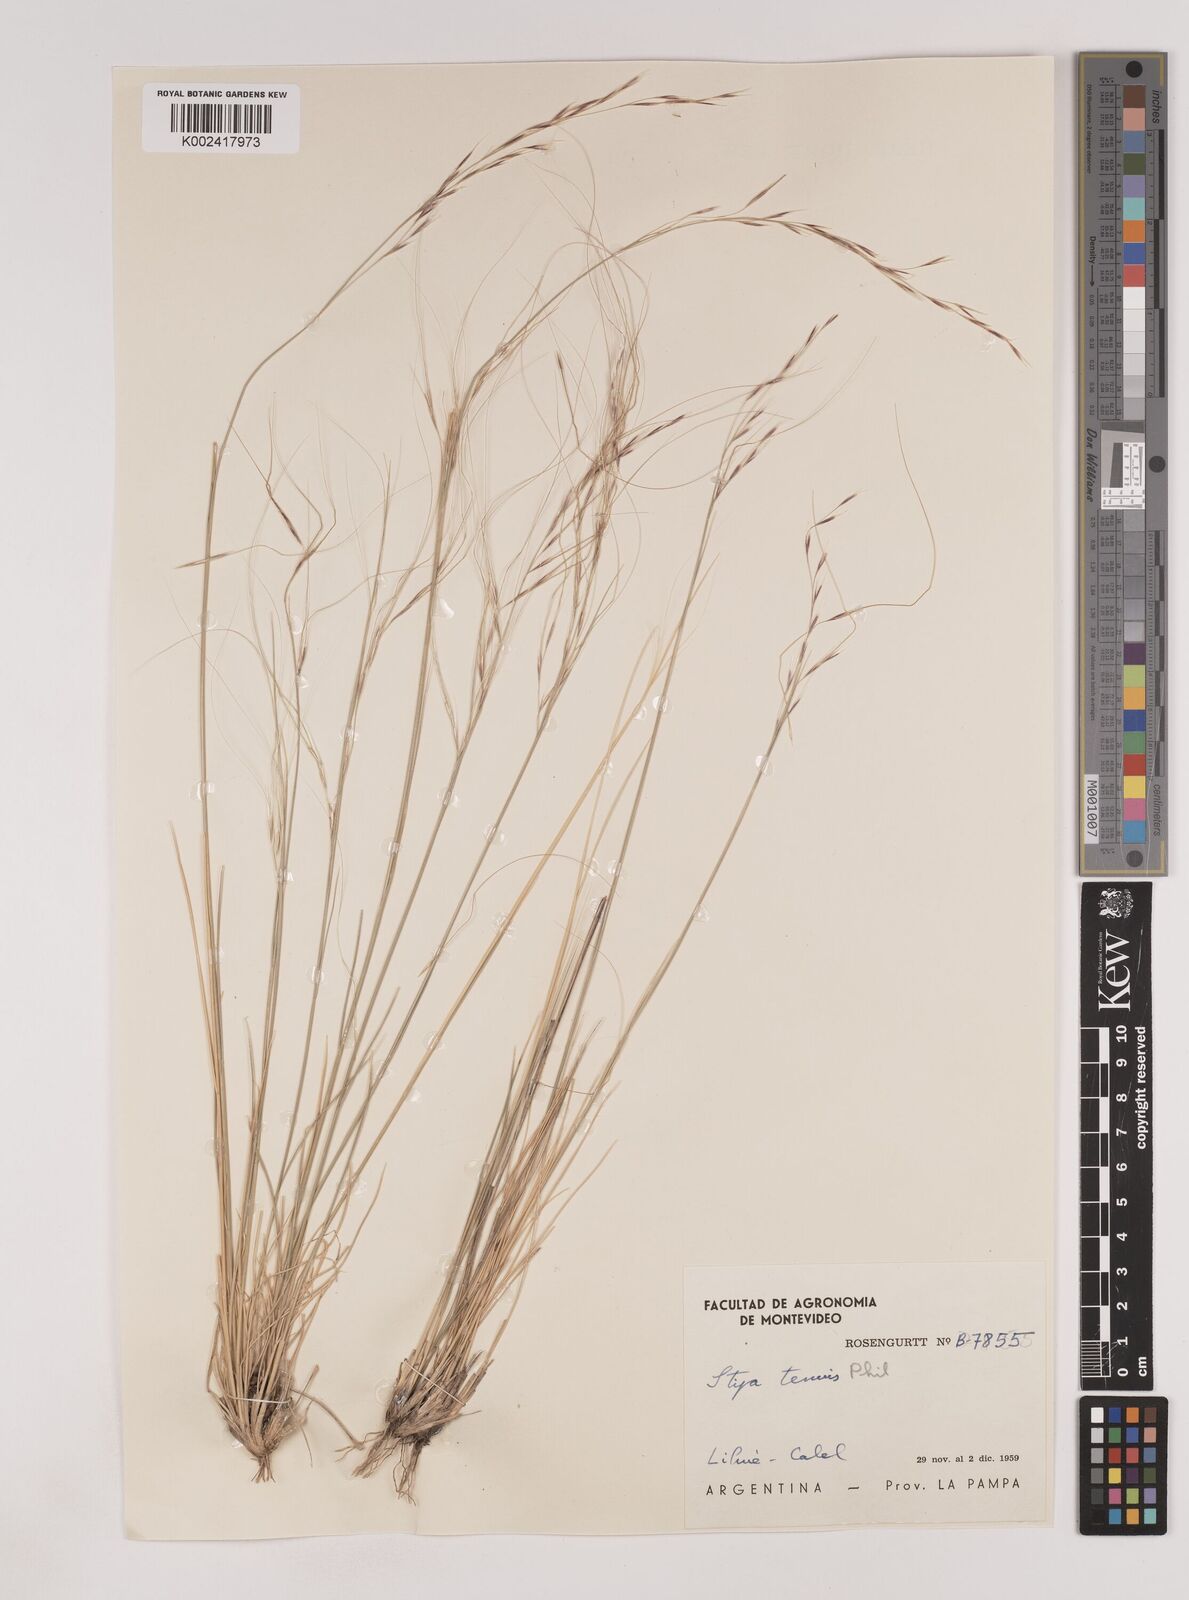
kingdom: Plantae
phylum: Tracheophyta
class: Liliopsida
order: Poales
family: Poaceae
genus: Nassella
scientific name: Nassella tenuis
